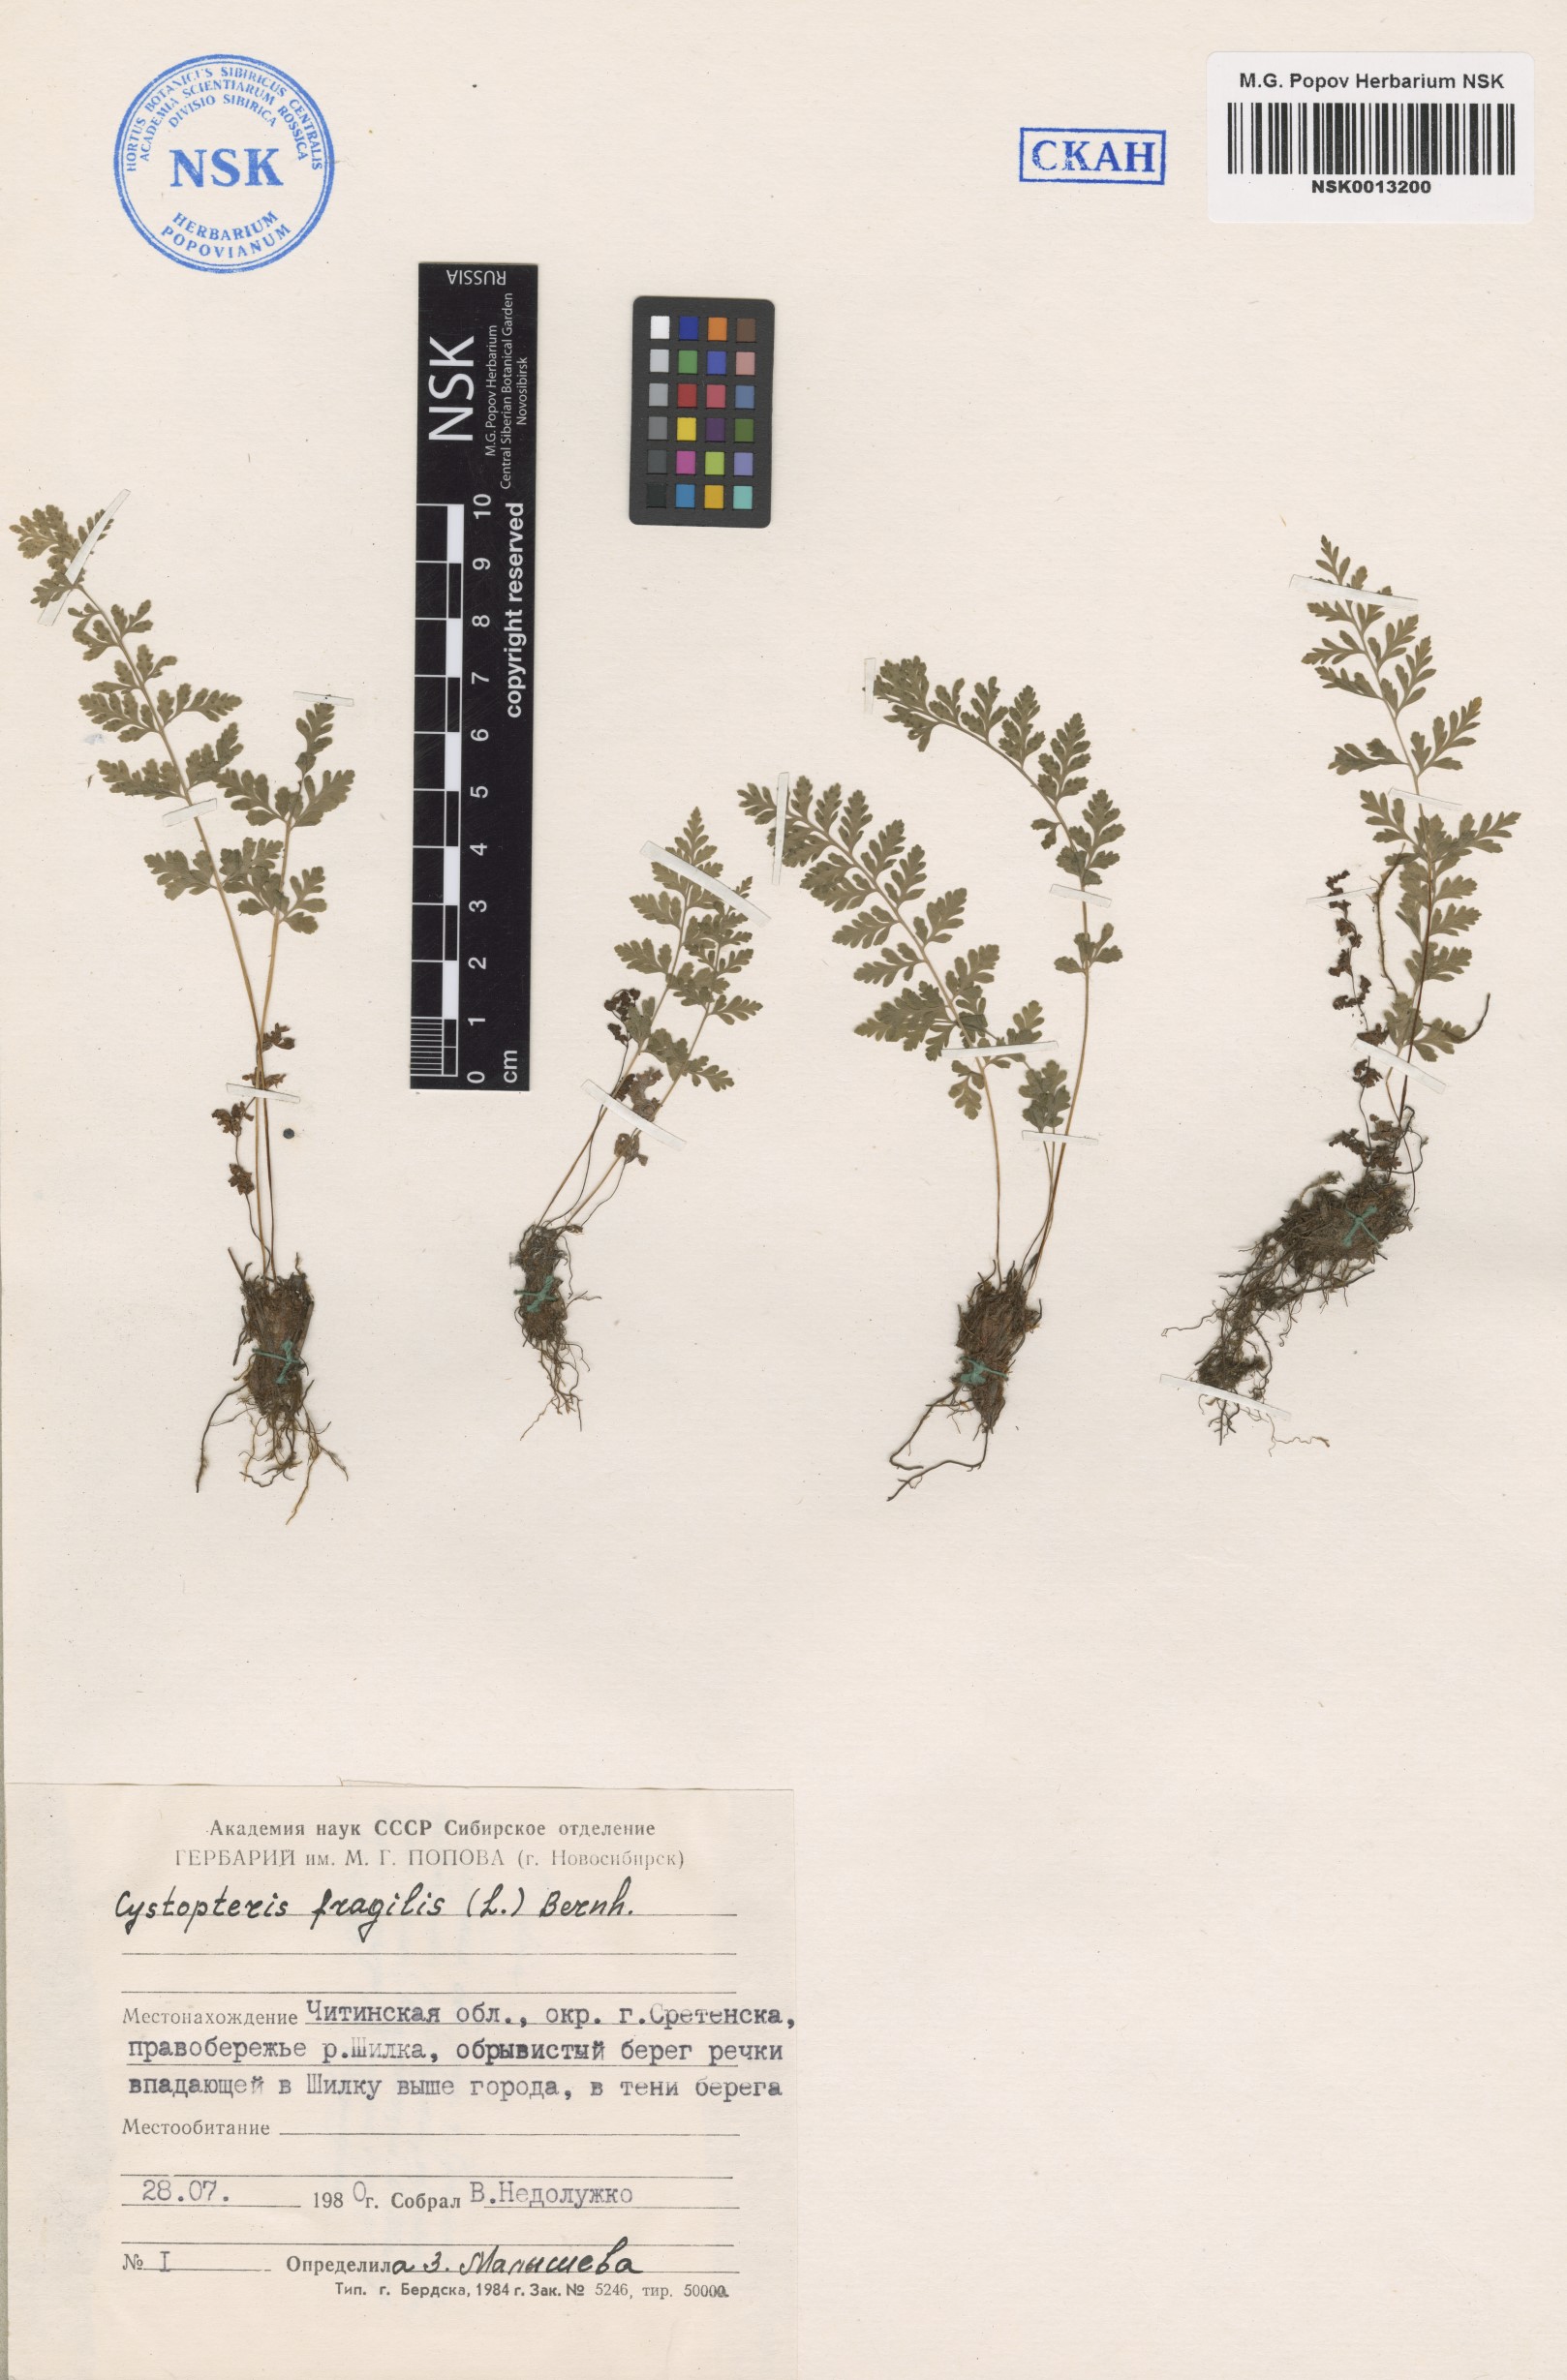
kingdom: Plantae
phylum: Tracheophyta
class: Polypodiopsida
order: Polypodiales
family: Cystopteridaceae
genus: Cystopteris
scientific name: Cystopteris fragilis
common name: Brittle bladder fern
